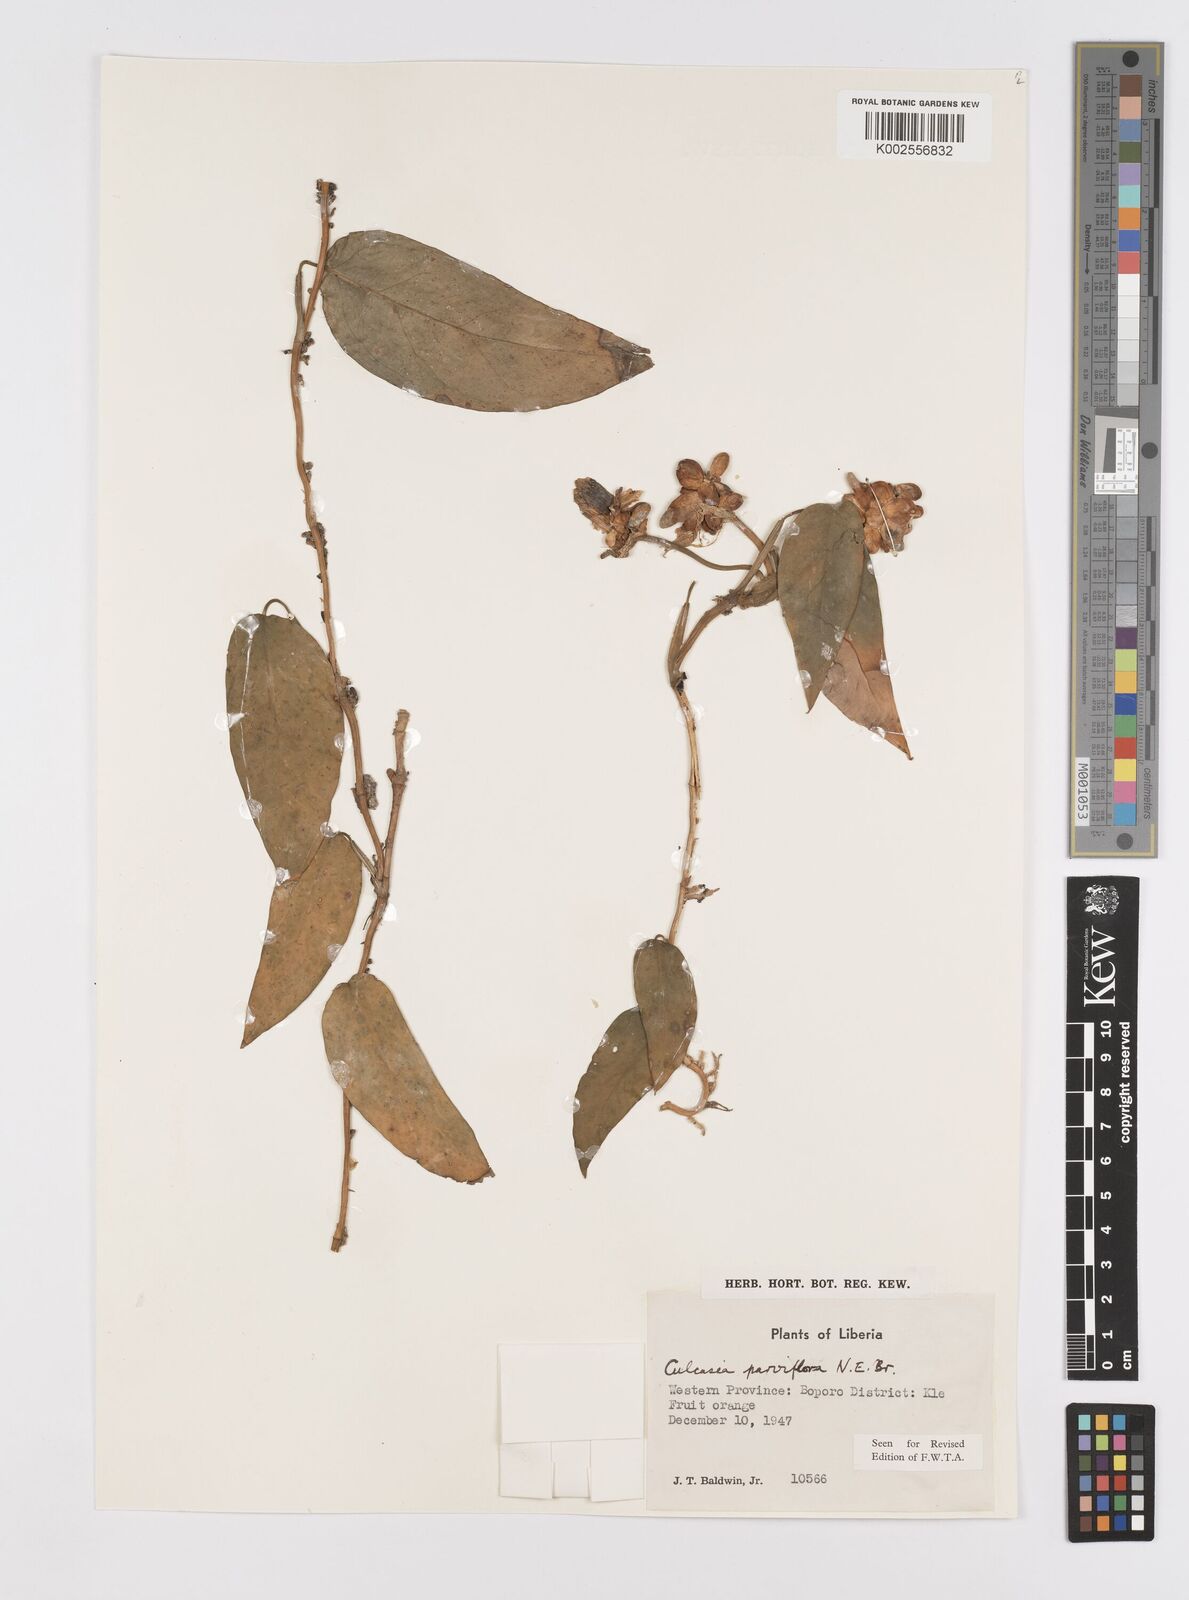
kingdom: Plantae
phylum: Tracheophyta
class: Liliopsida
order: Alismatales
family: Araceae
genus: Culcasia
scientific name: Culcasia parviflora
